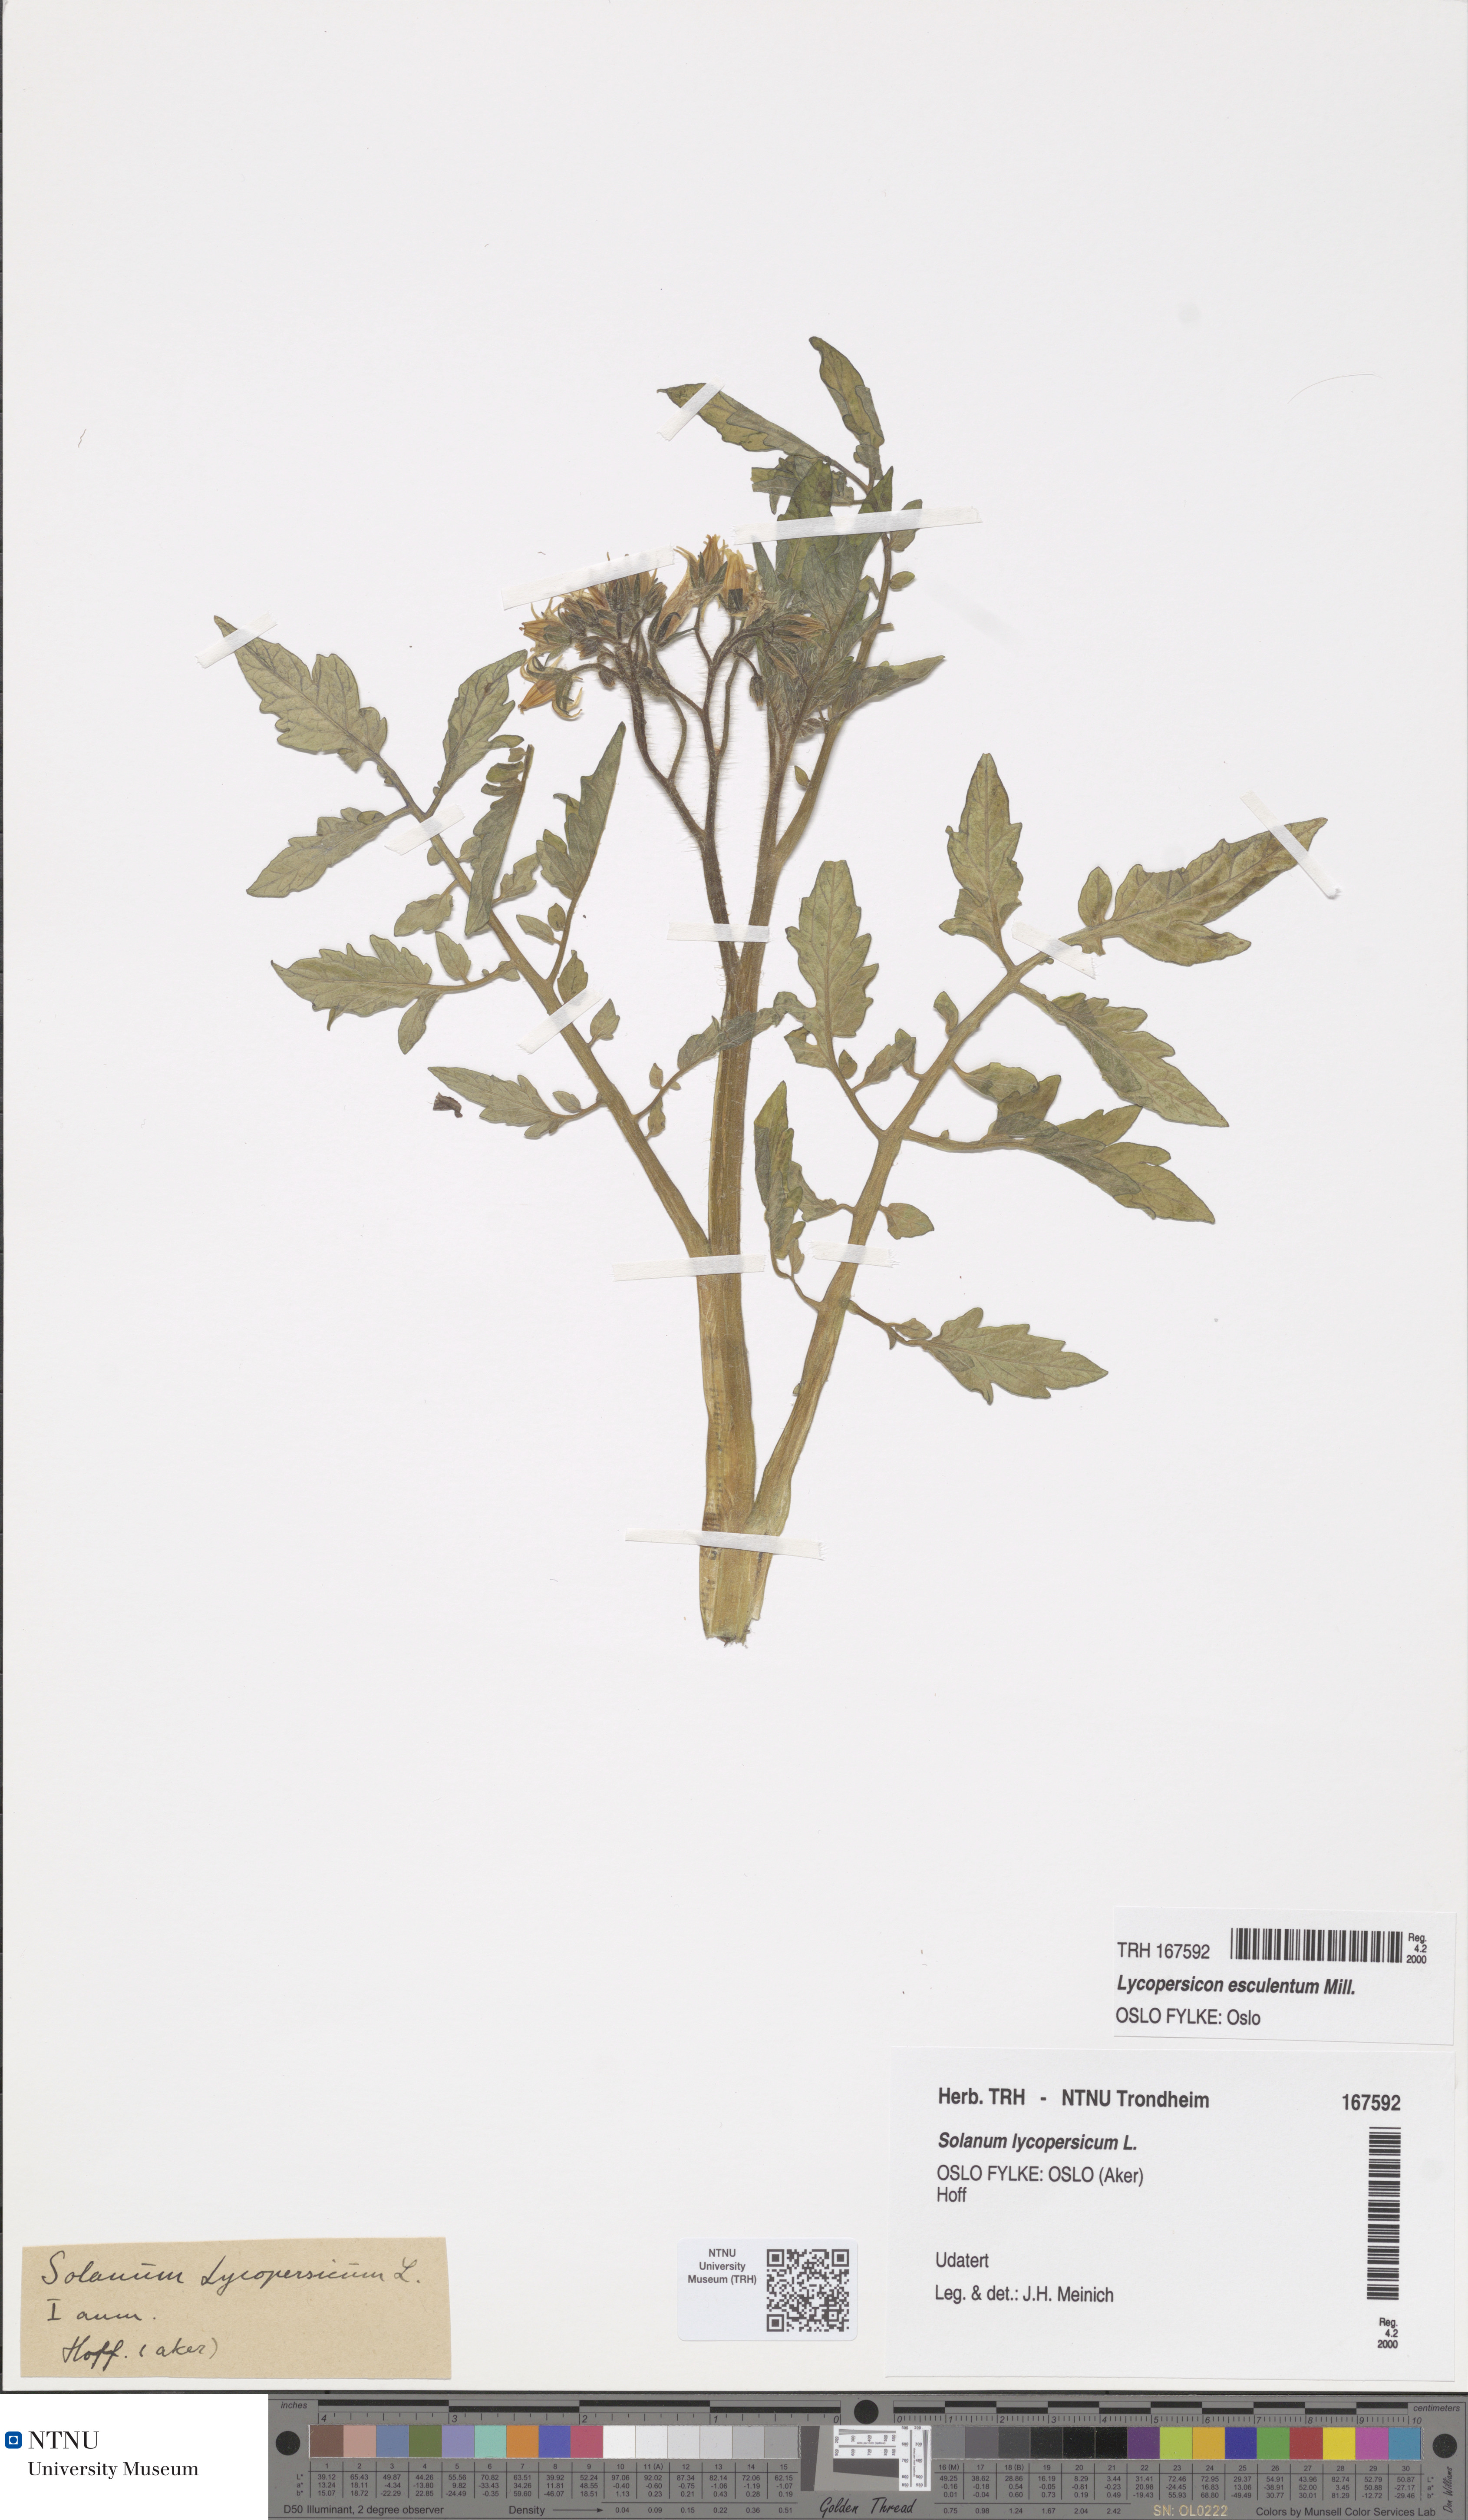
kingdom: Plantae
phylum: Tracheophyta
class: Magnoliopsida
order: Solanales
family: Solanaceae
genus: Solanum
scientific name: Solanum
